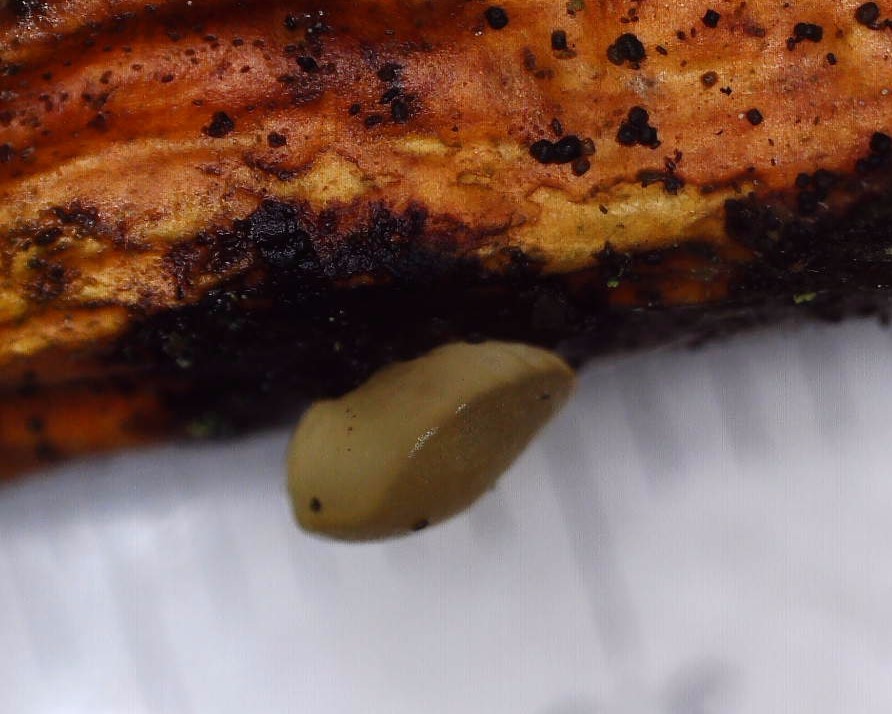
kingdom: Fungi
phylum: Basidiomycota
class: Dacrymycetes
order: Dacrymycetales
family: Dacrymycetaceae
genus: Dacrymyces
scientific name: Dacrymyces
